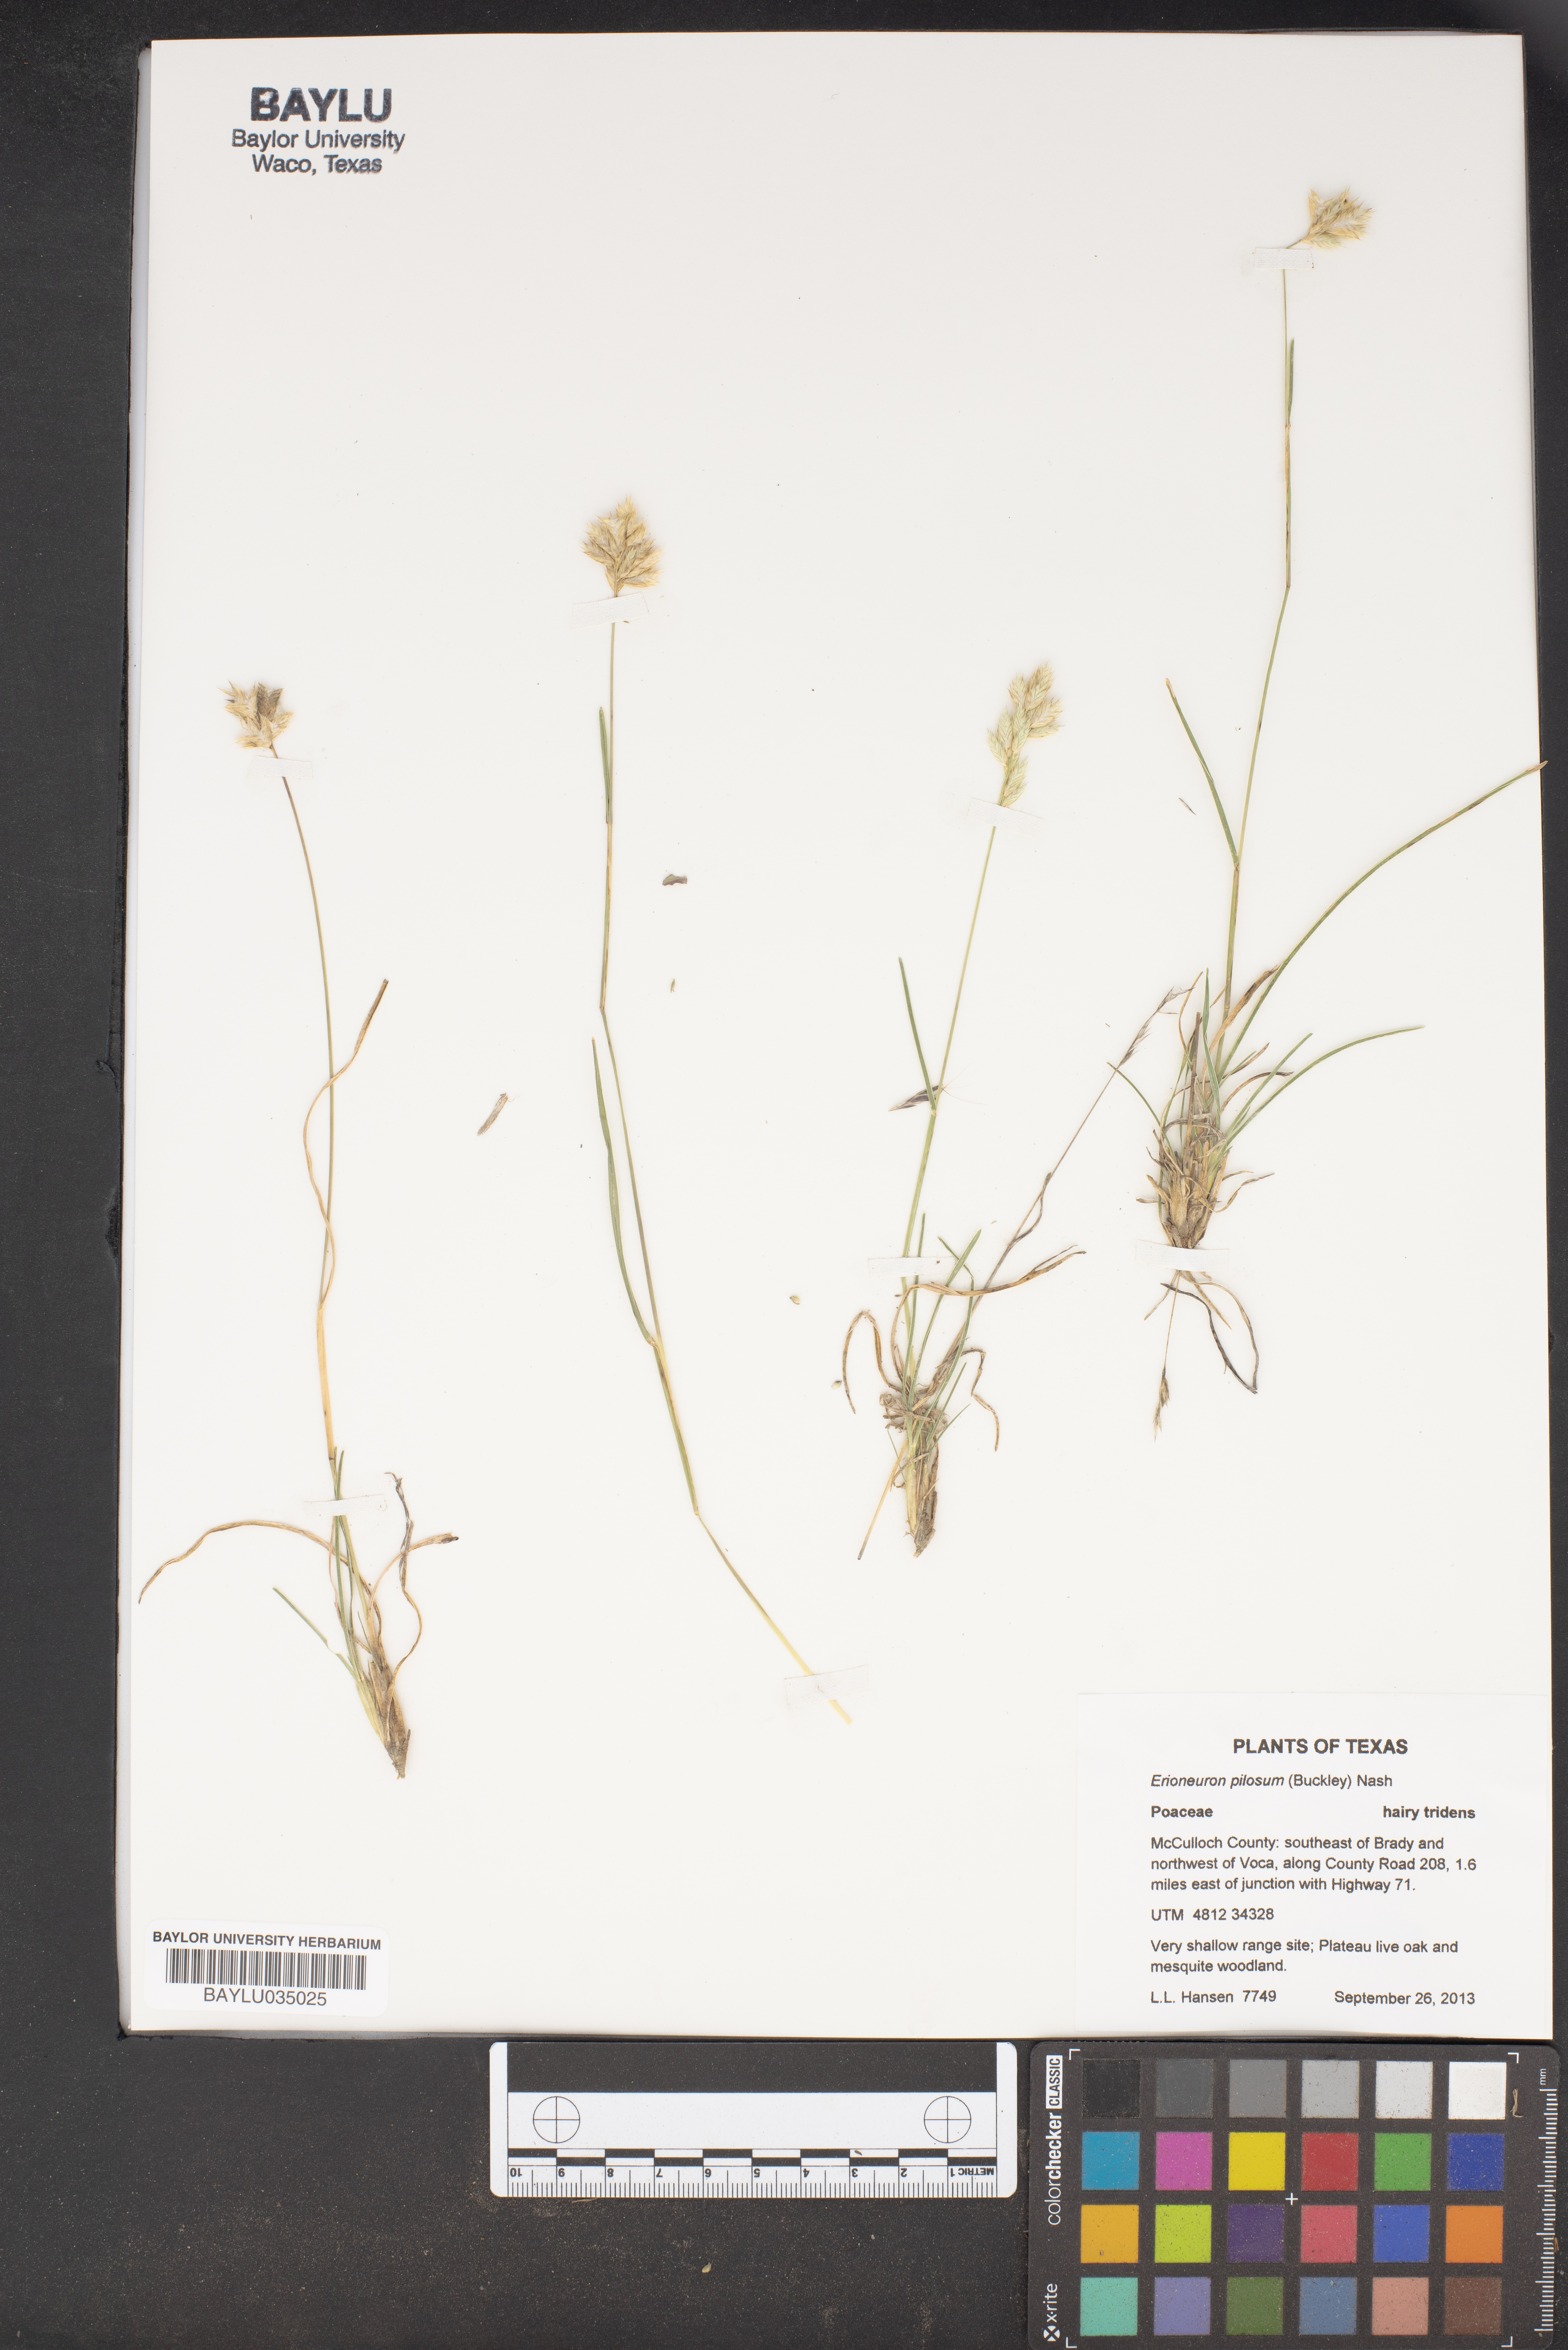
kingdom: Plantae
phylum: Tracheophyta
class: Liliopsida
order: Poales
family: Poaceae
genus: Erioneuron
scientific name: Erioneuron pilosum
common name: Hairy woolly grass
